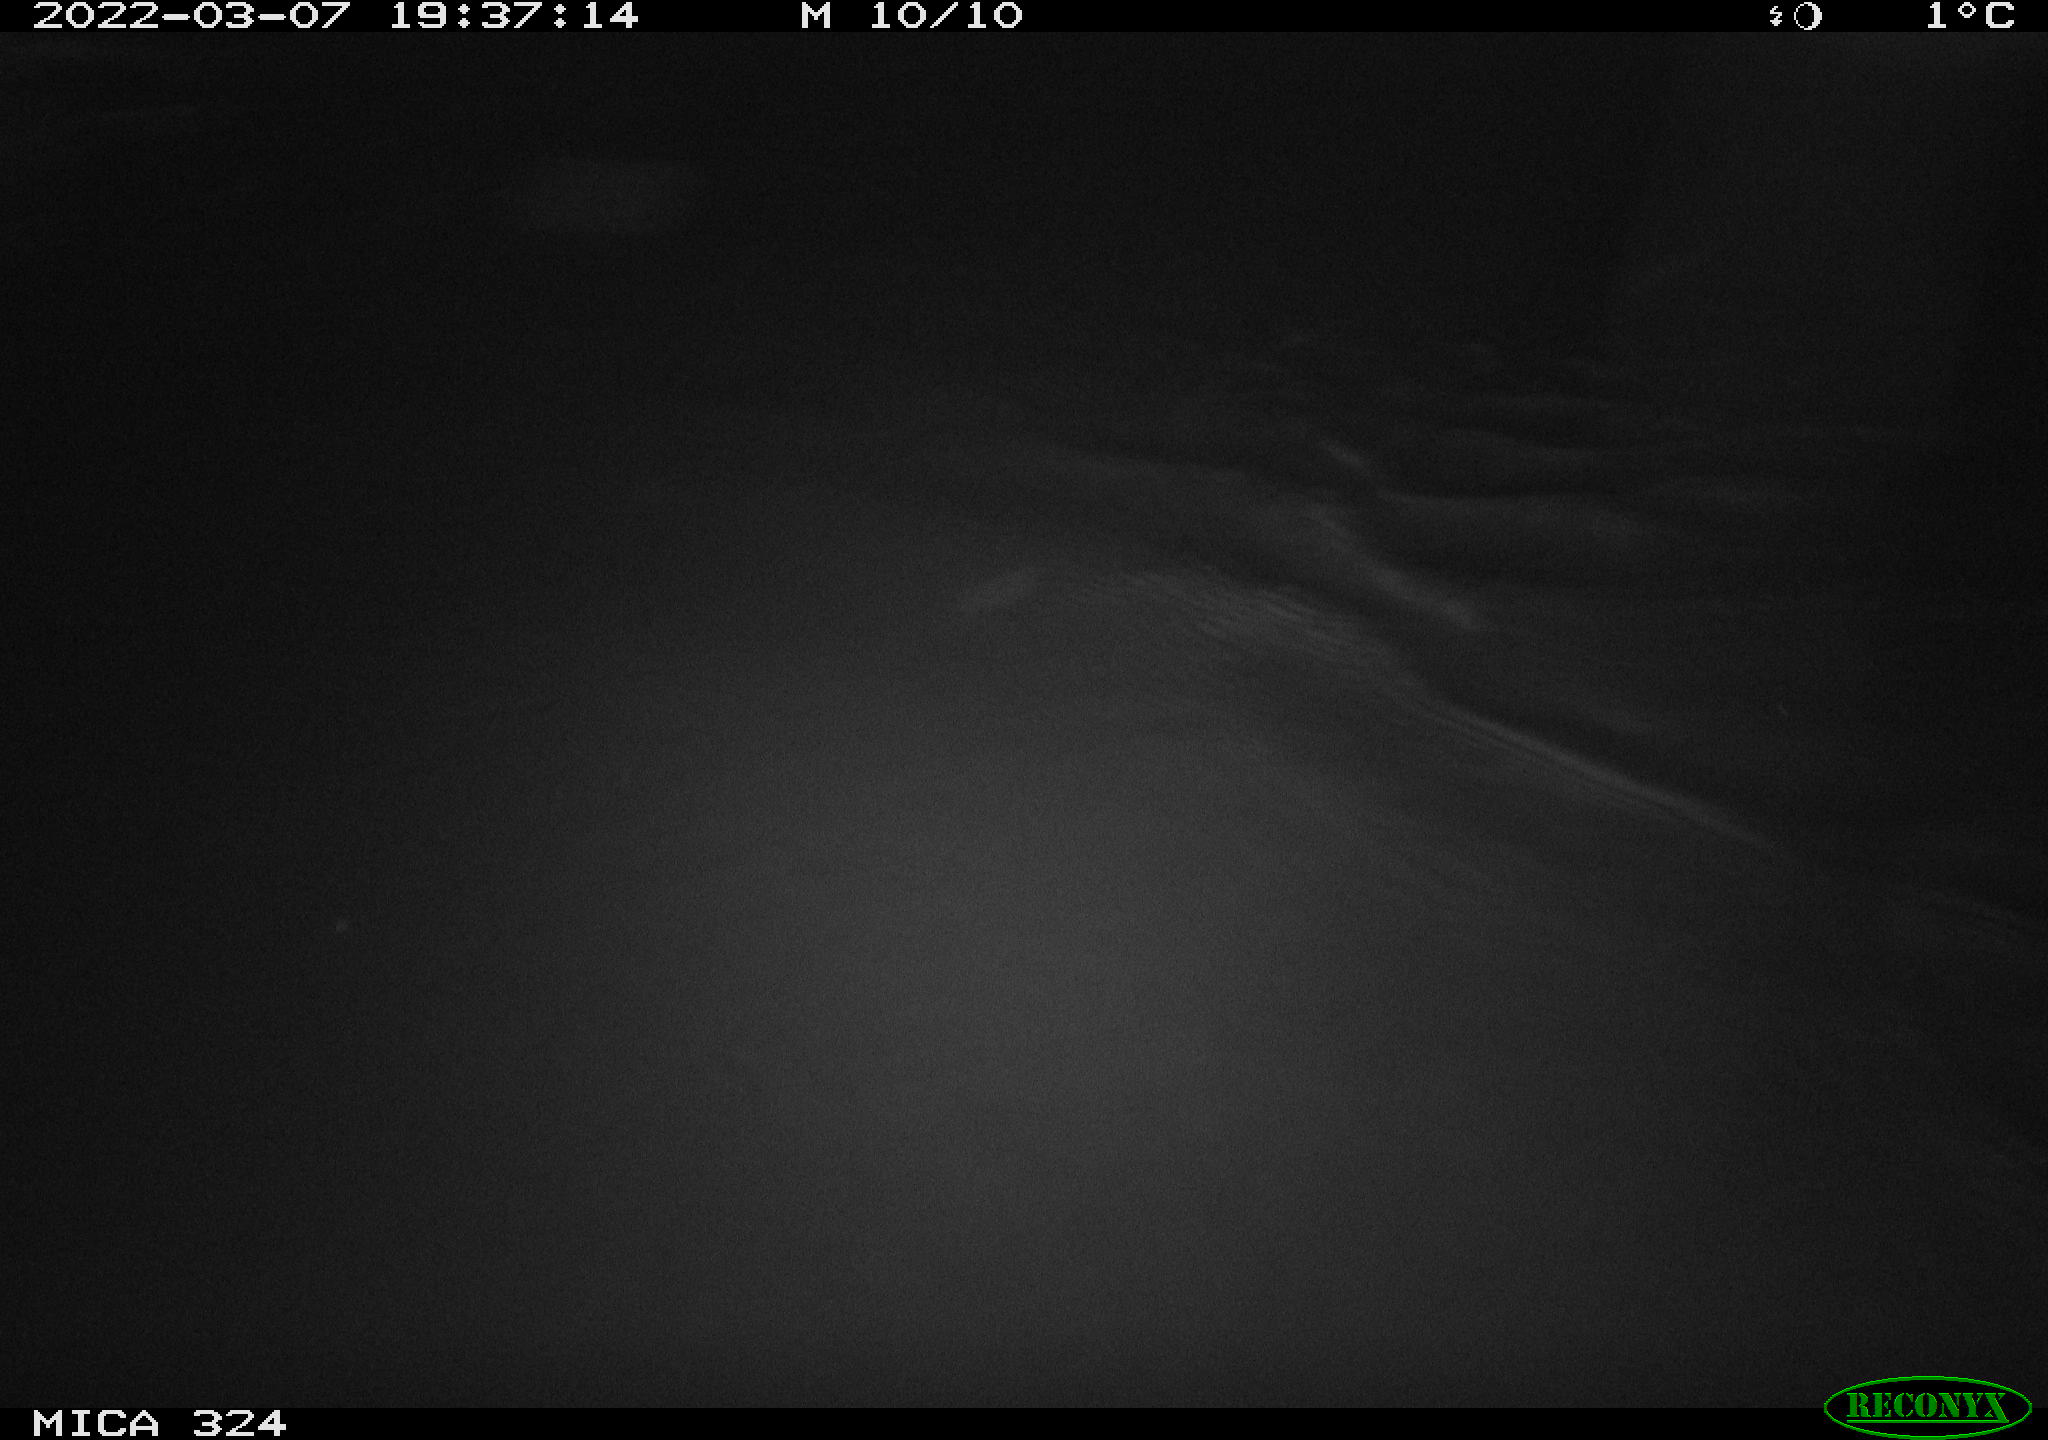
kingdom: Animalia
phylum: Chordata
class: Aves
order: Anseriformes
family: Anatidae
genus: Anas
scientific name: Anas platyrhynchos
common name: Mallard
